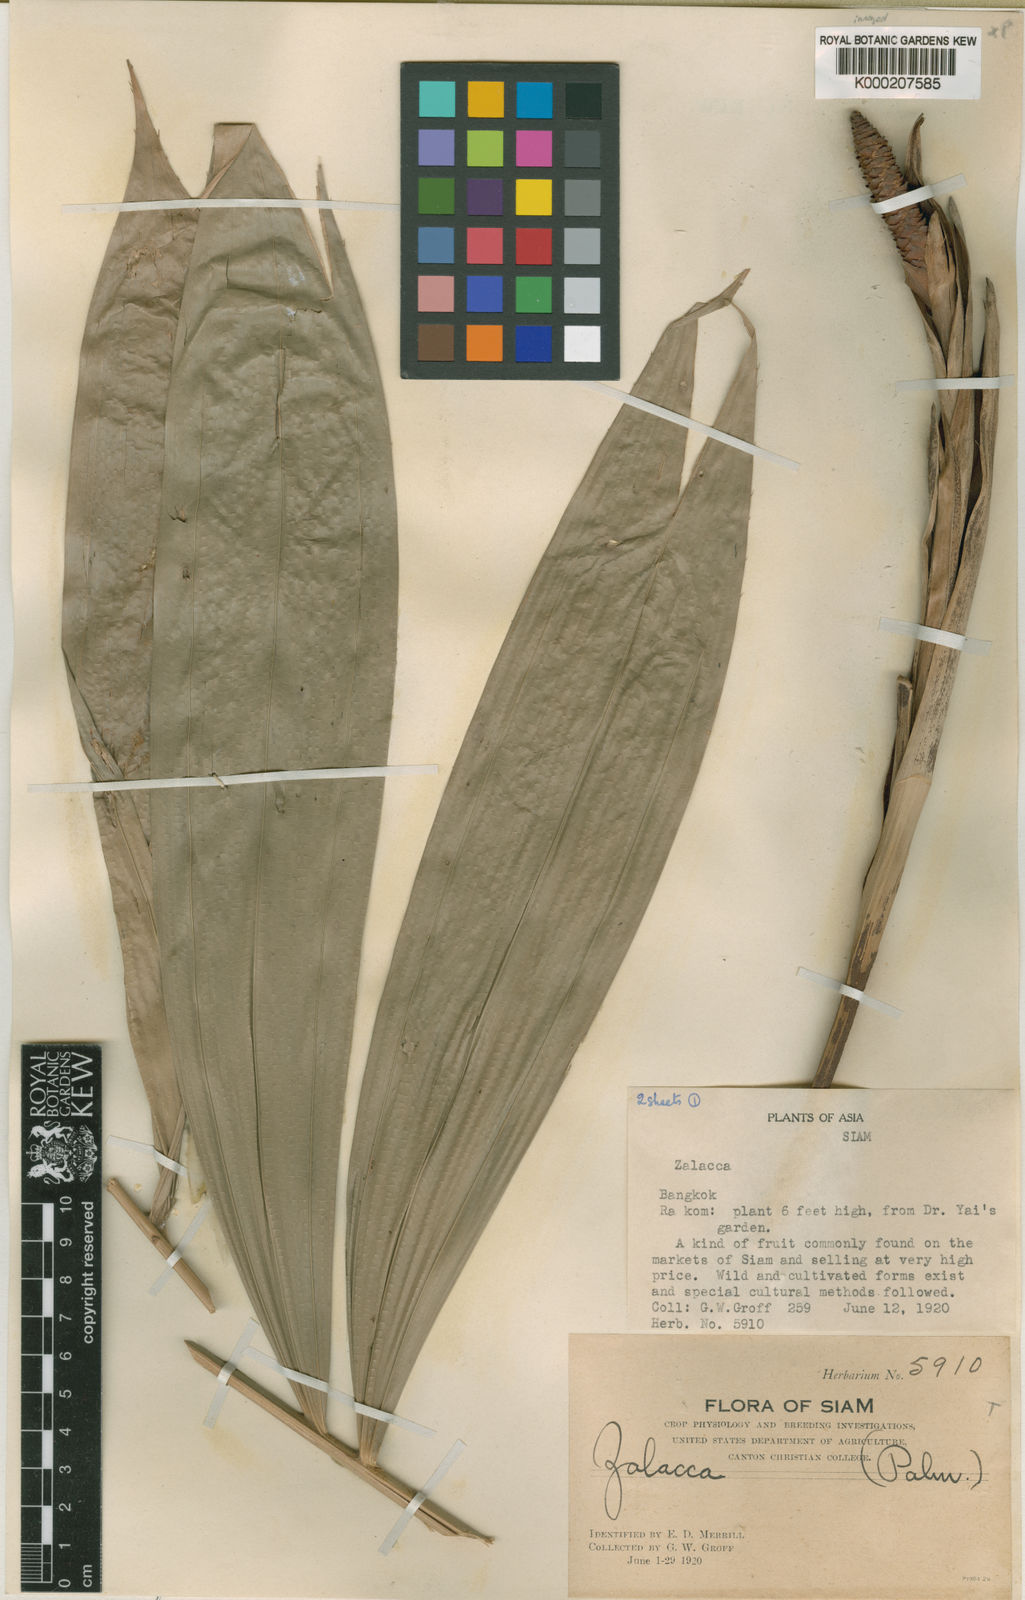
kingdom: Plantae
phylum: Tracheophyta
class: Liliopsida
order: Arecales
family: Arecaceae
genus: Salacca
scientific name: Salacca wallichiana
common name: Rakum palm
